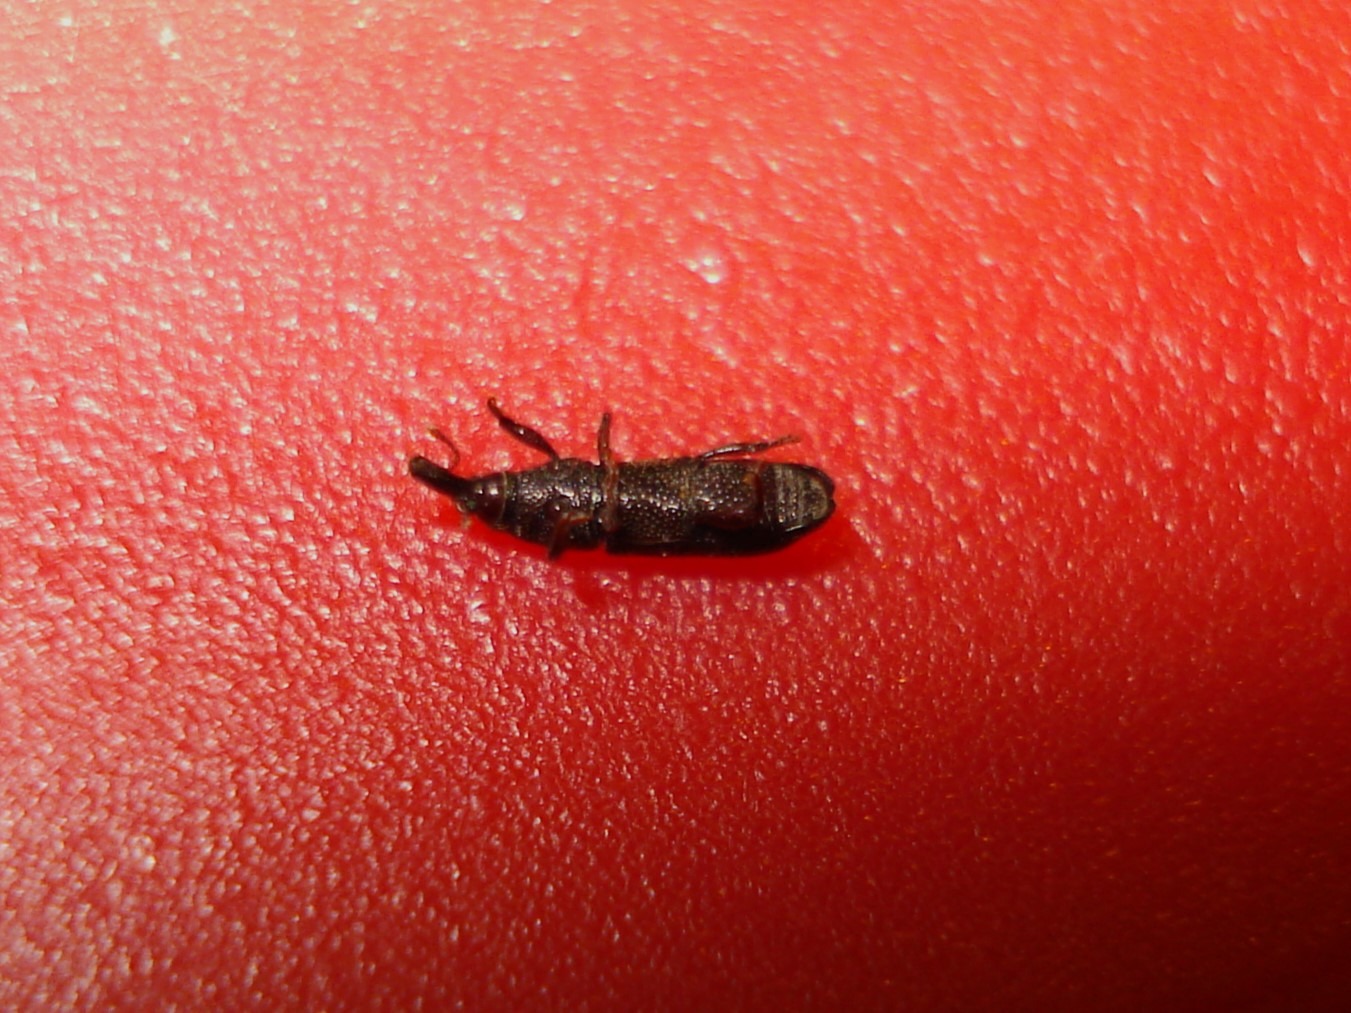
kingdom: Animalia
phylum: Arthropoda
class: Insecta
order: Coleoptera
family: Curculionidae
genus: Pentarthrum
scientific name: Pentarthrum confine
